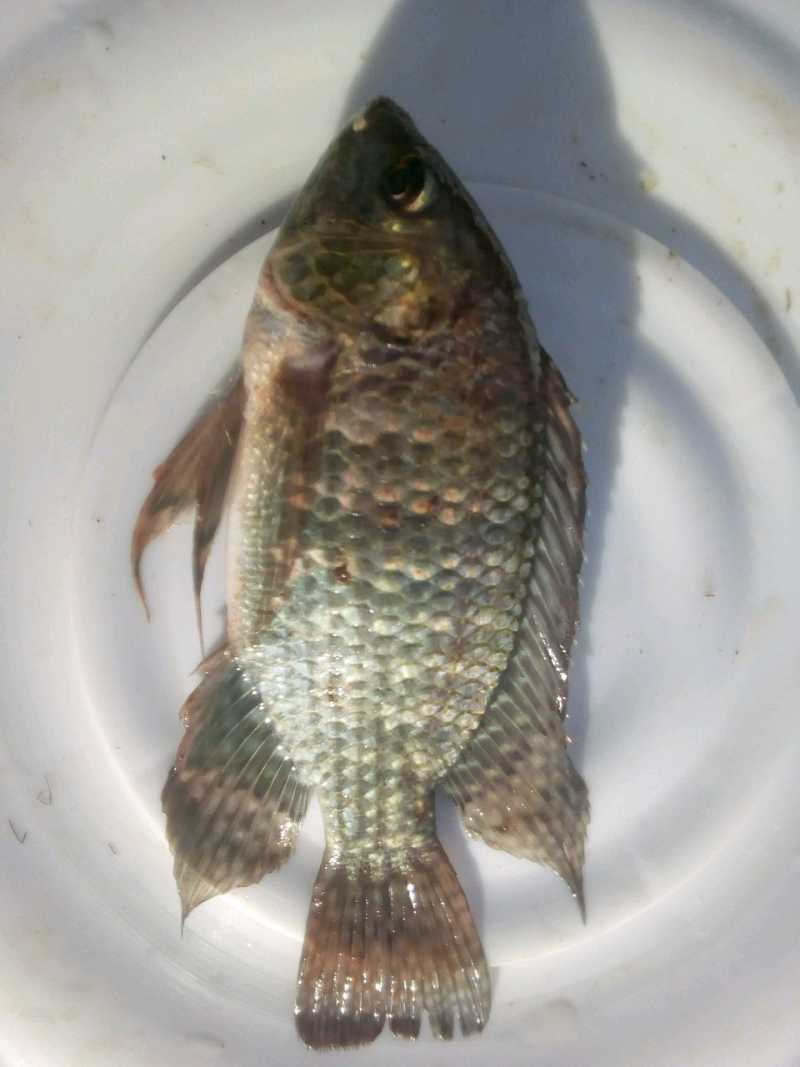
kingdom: Animalia
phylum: Chordata
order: Perciformes
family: Cichlidae
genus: Oreochromis
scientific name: Oreochromis leucostictus
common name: Blue spotted tilapia
